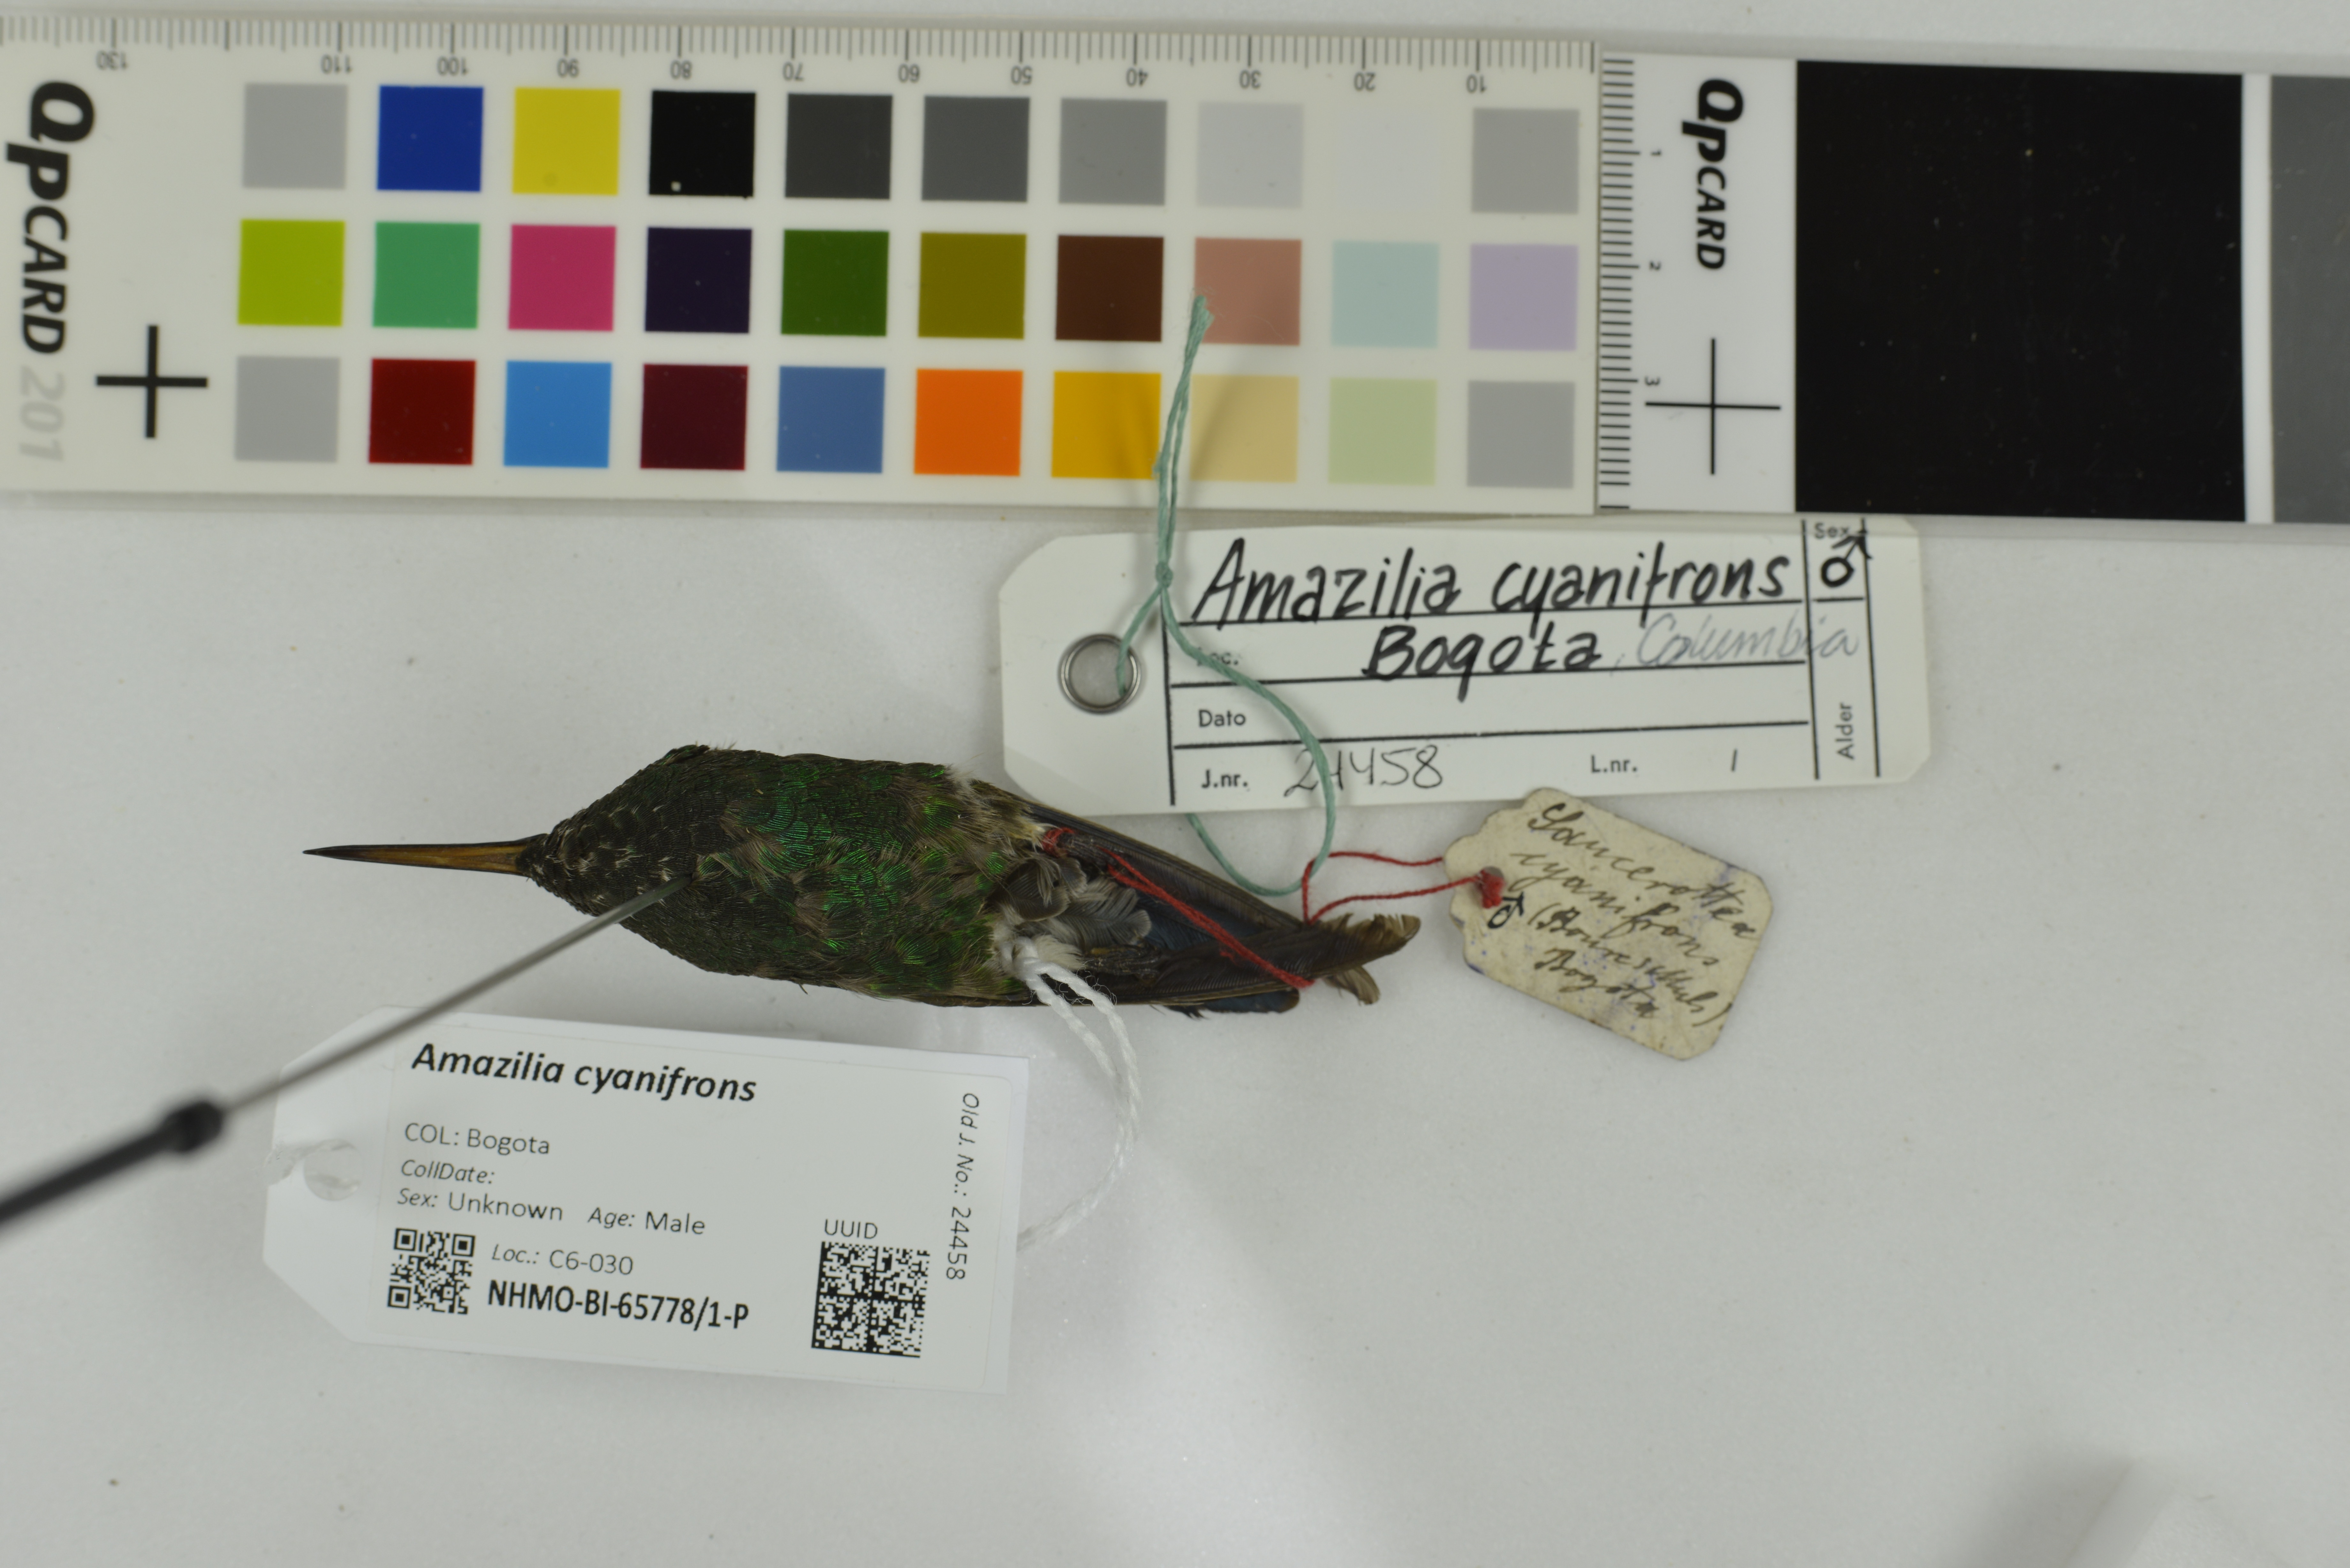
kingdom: Animalia
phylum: Chordata
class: Aves
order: Apodiformes
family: Trochilidae
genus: Saucerottia
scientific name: Saucerottia cyanifrons
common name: Indigo-capped hummingbird
